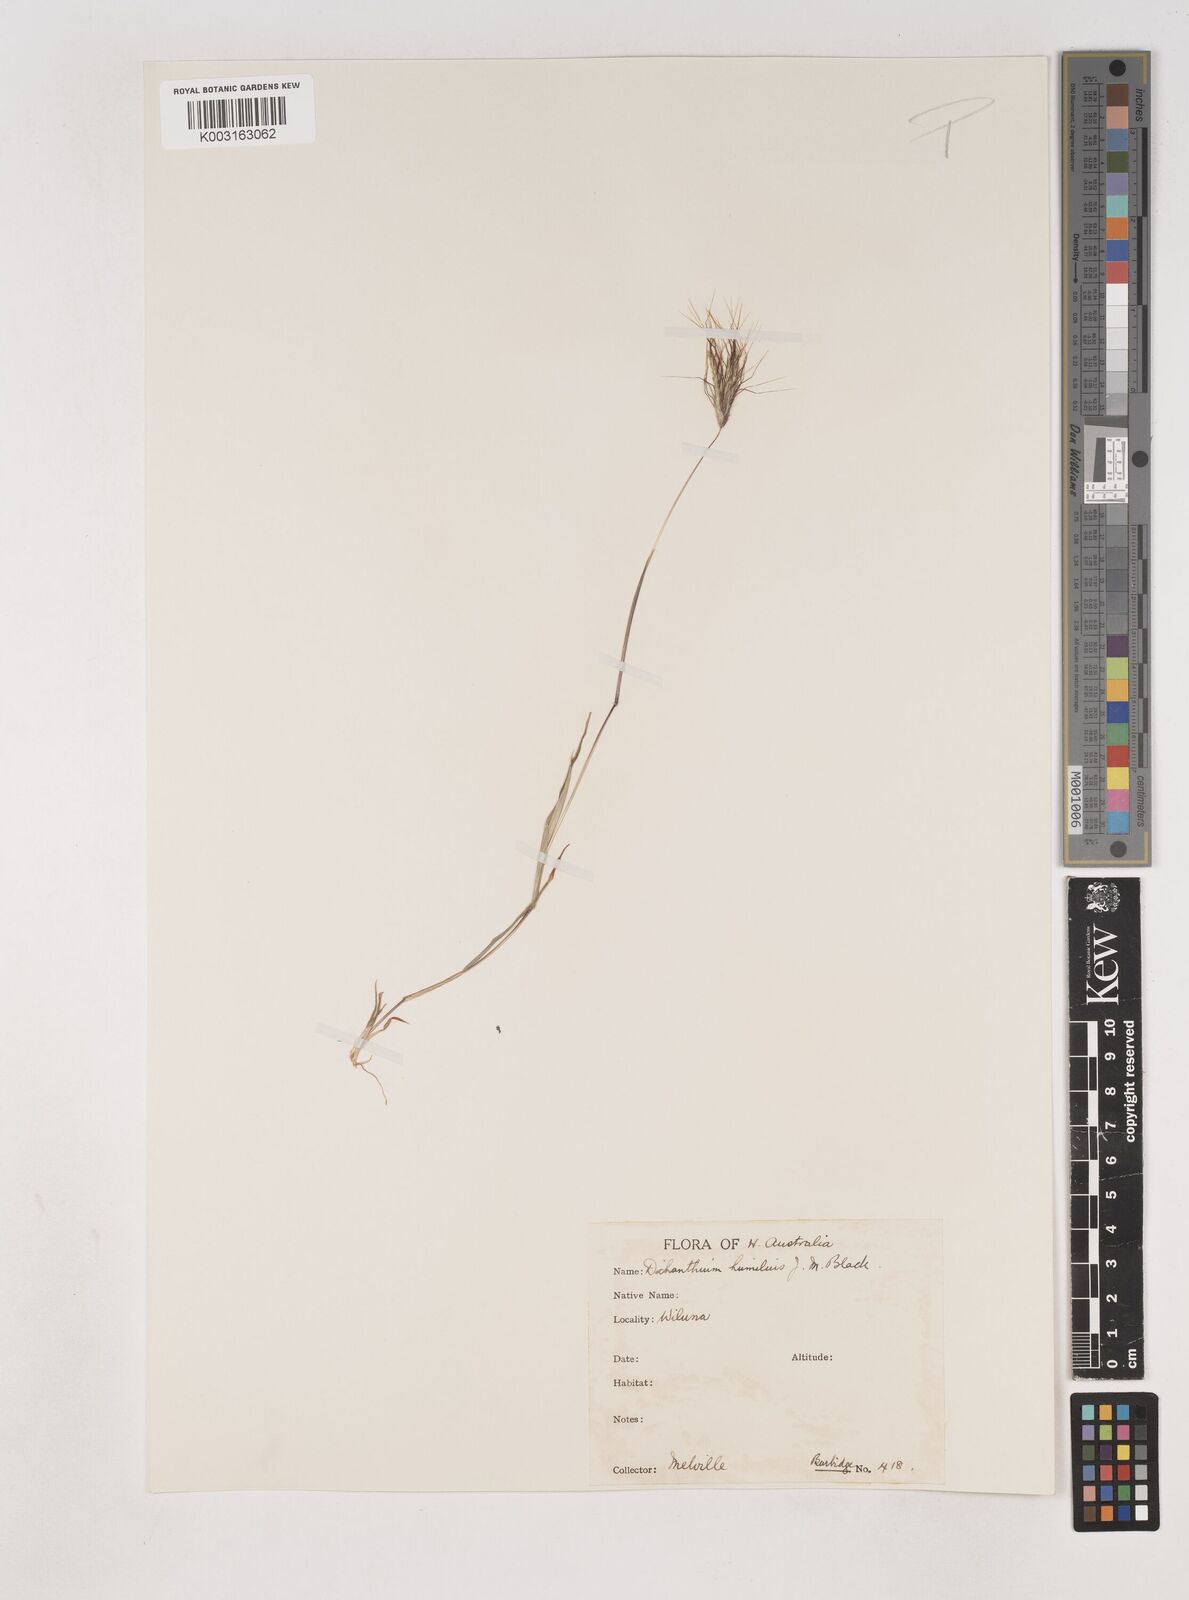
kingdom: Plantae
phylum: Tracheophyta
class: Liliopsida
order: Poales
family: Poaceae
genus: Dichanthium
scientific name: Dichanthium sericeum
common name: Silky bluestem
